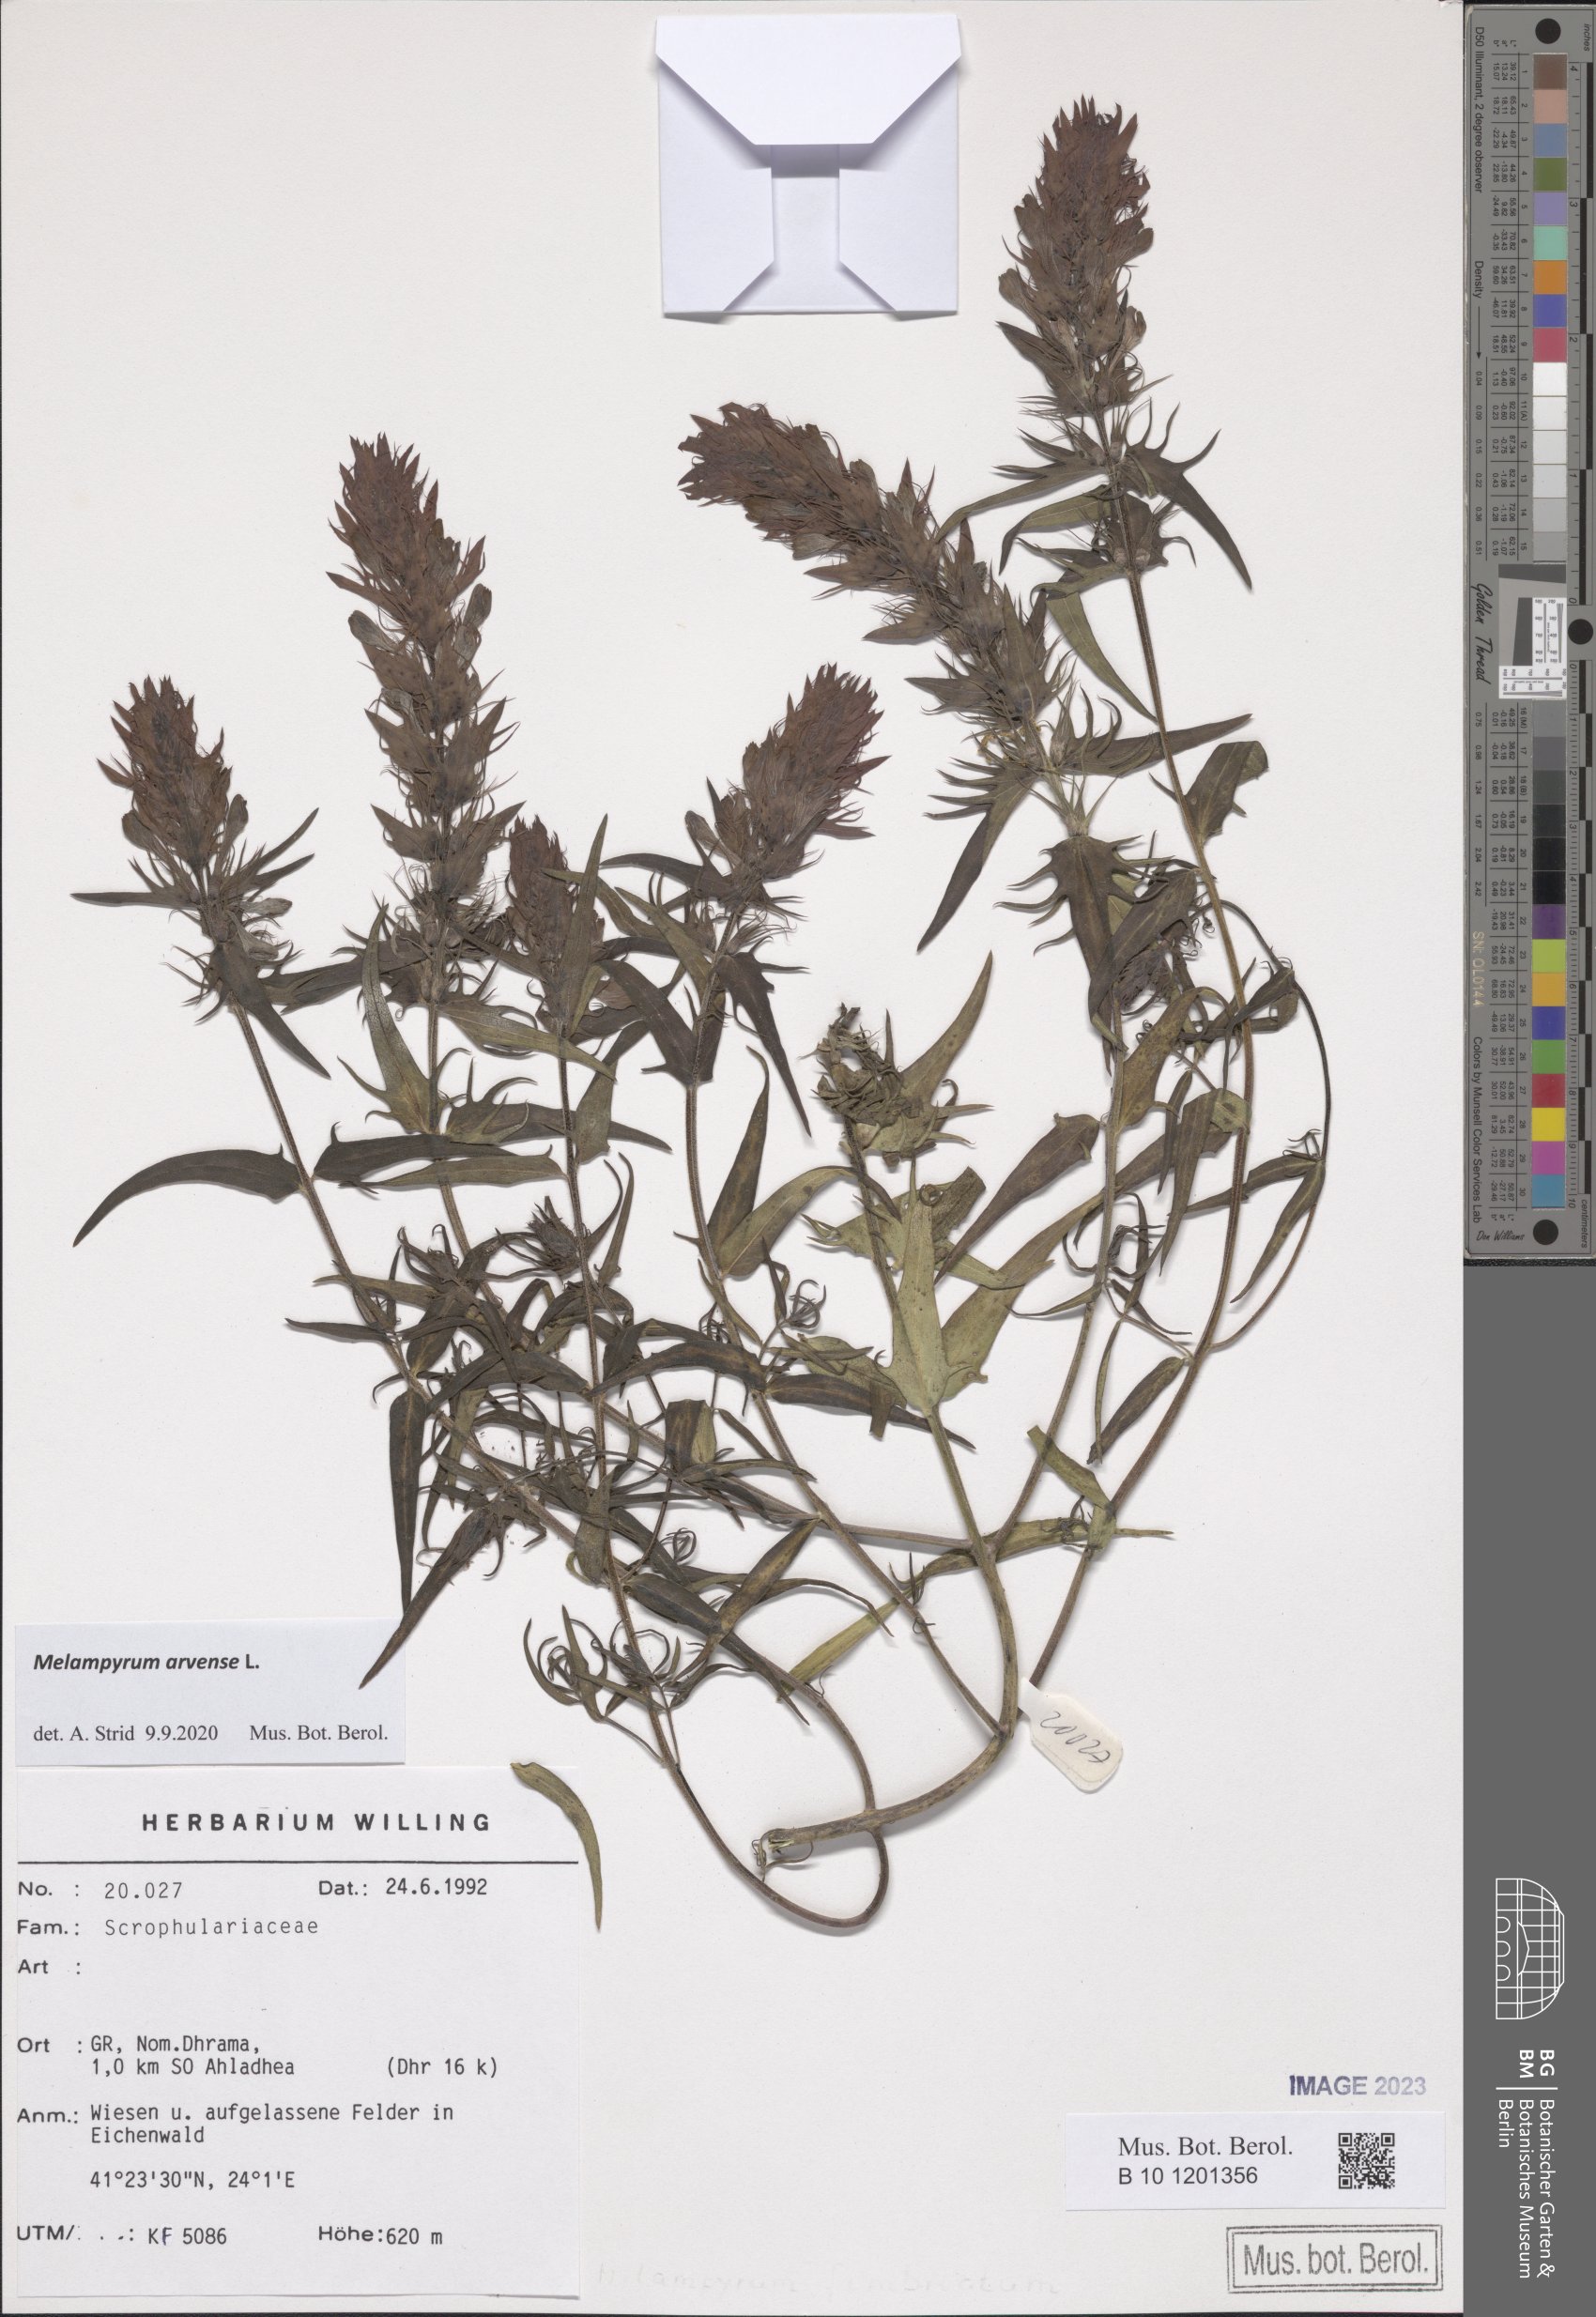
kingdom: Plantae
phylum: Tracheophyta
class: Magnoliopsida
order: Lamiales
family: Orobanchaceae
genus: Melampyrum
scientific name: Melampyrum arvense
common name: Field cow-wheat
